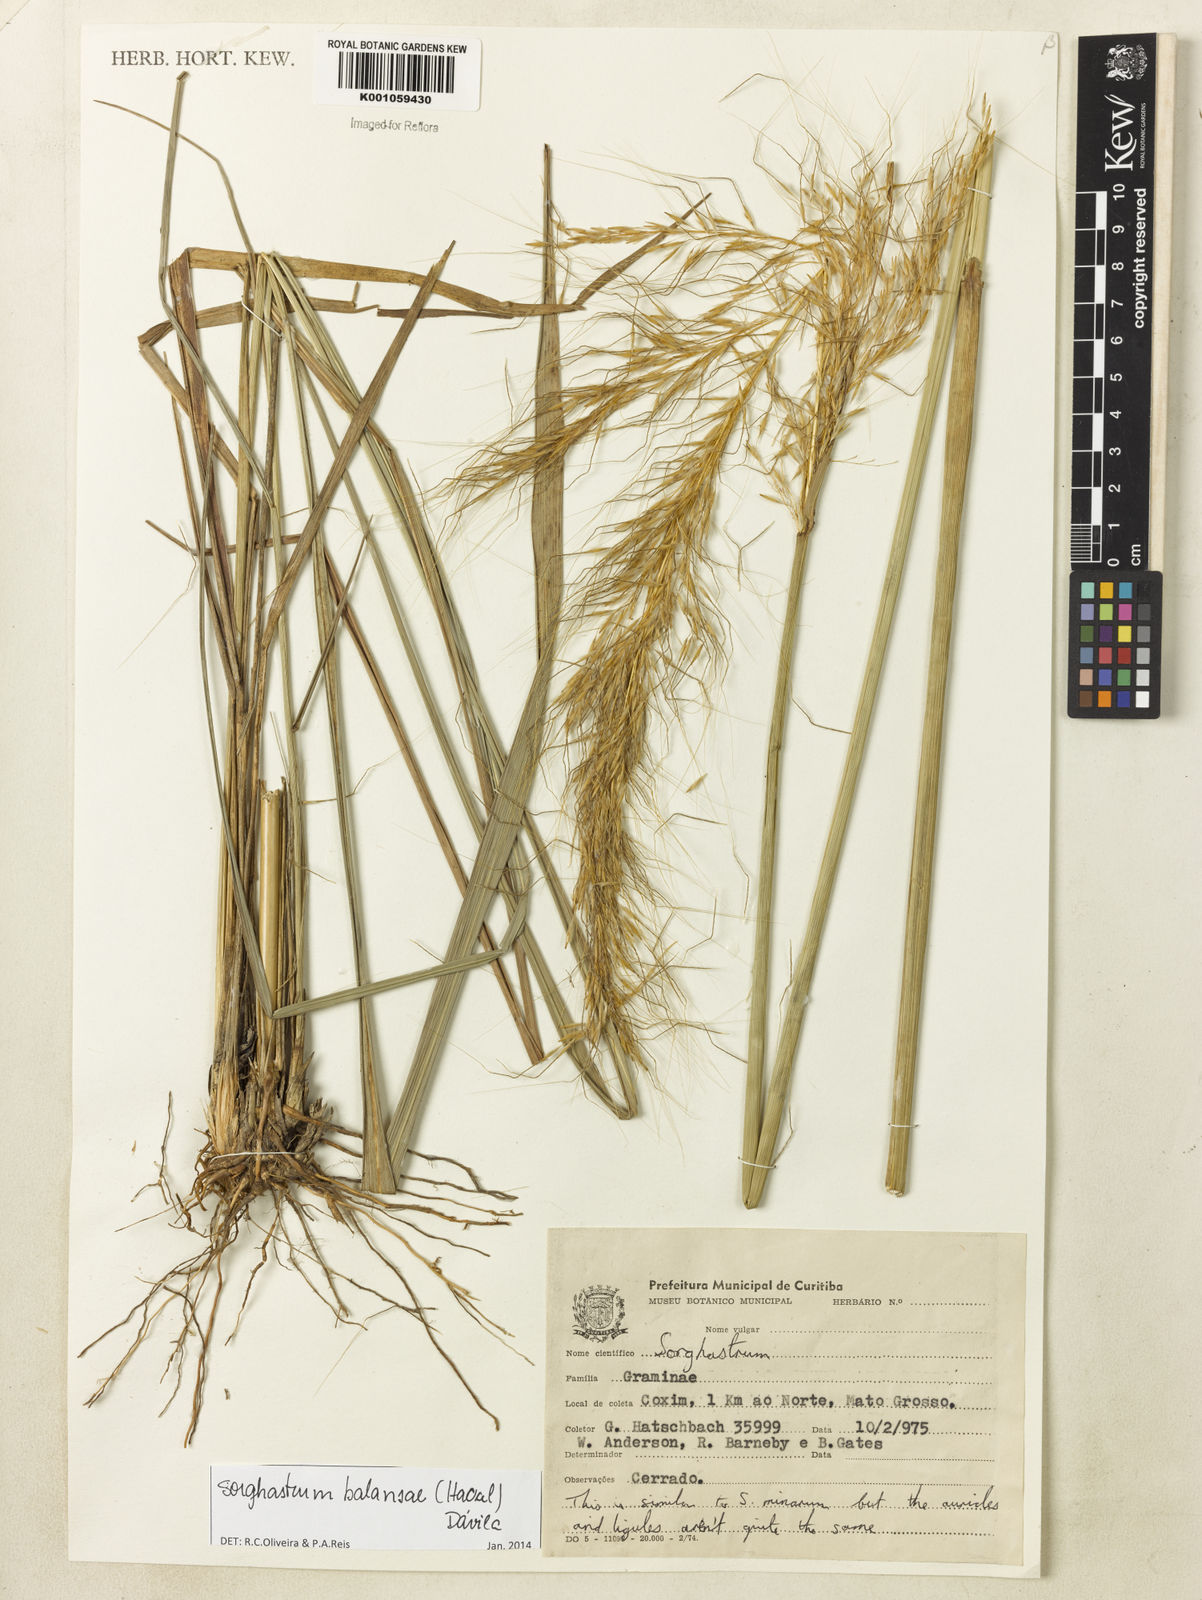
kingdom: Plantae
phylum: Tracheophyta
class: Liliopsida
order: Poales
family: Poaceae
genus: Sorghastrum
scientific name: Sorghastrum
